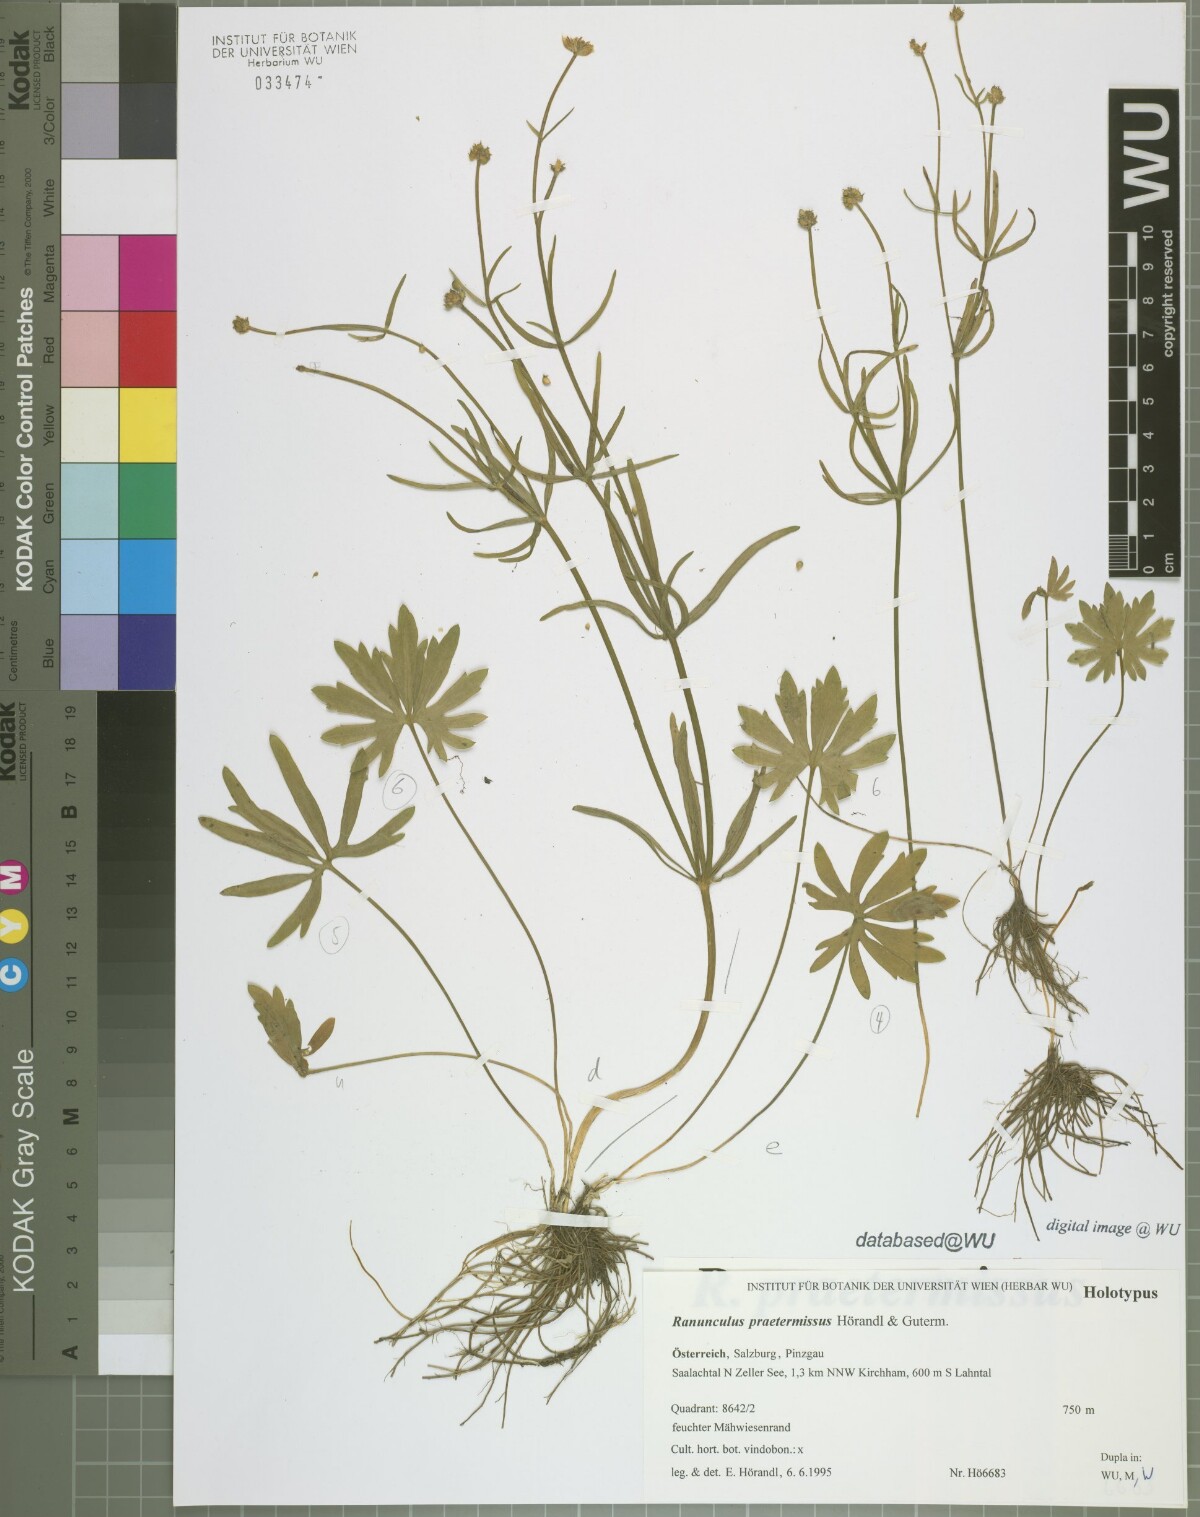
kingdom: Plantae
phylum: Tracheophyta
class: Magnoliopsida
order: Ranunculales
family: Ranunculaceae
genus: Ranunculus
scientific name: Ranunculus praetermissus
